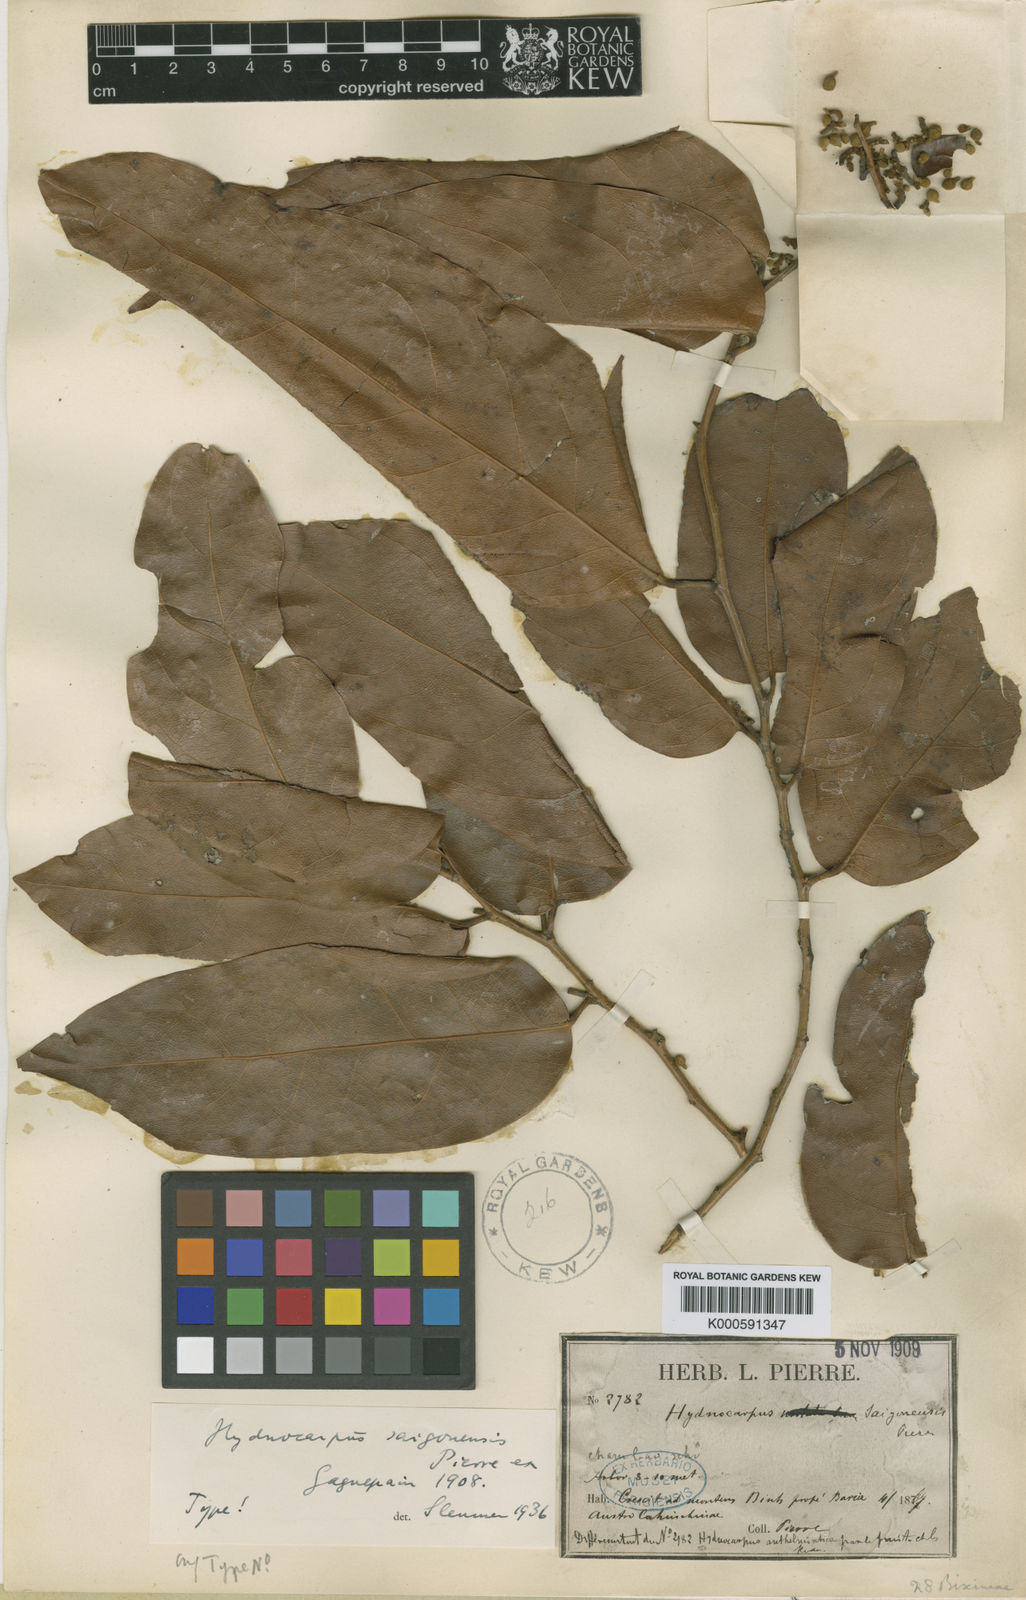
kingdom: Plantae
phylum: Tracheophyta
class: Magnoliopsida
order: Malpighiales
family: Achariaceae
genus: Hydnocarpus
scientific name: Hydnocarpus saigonensis
